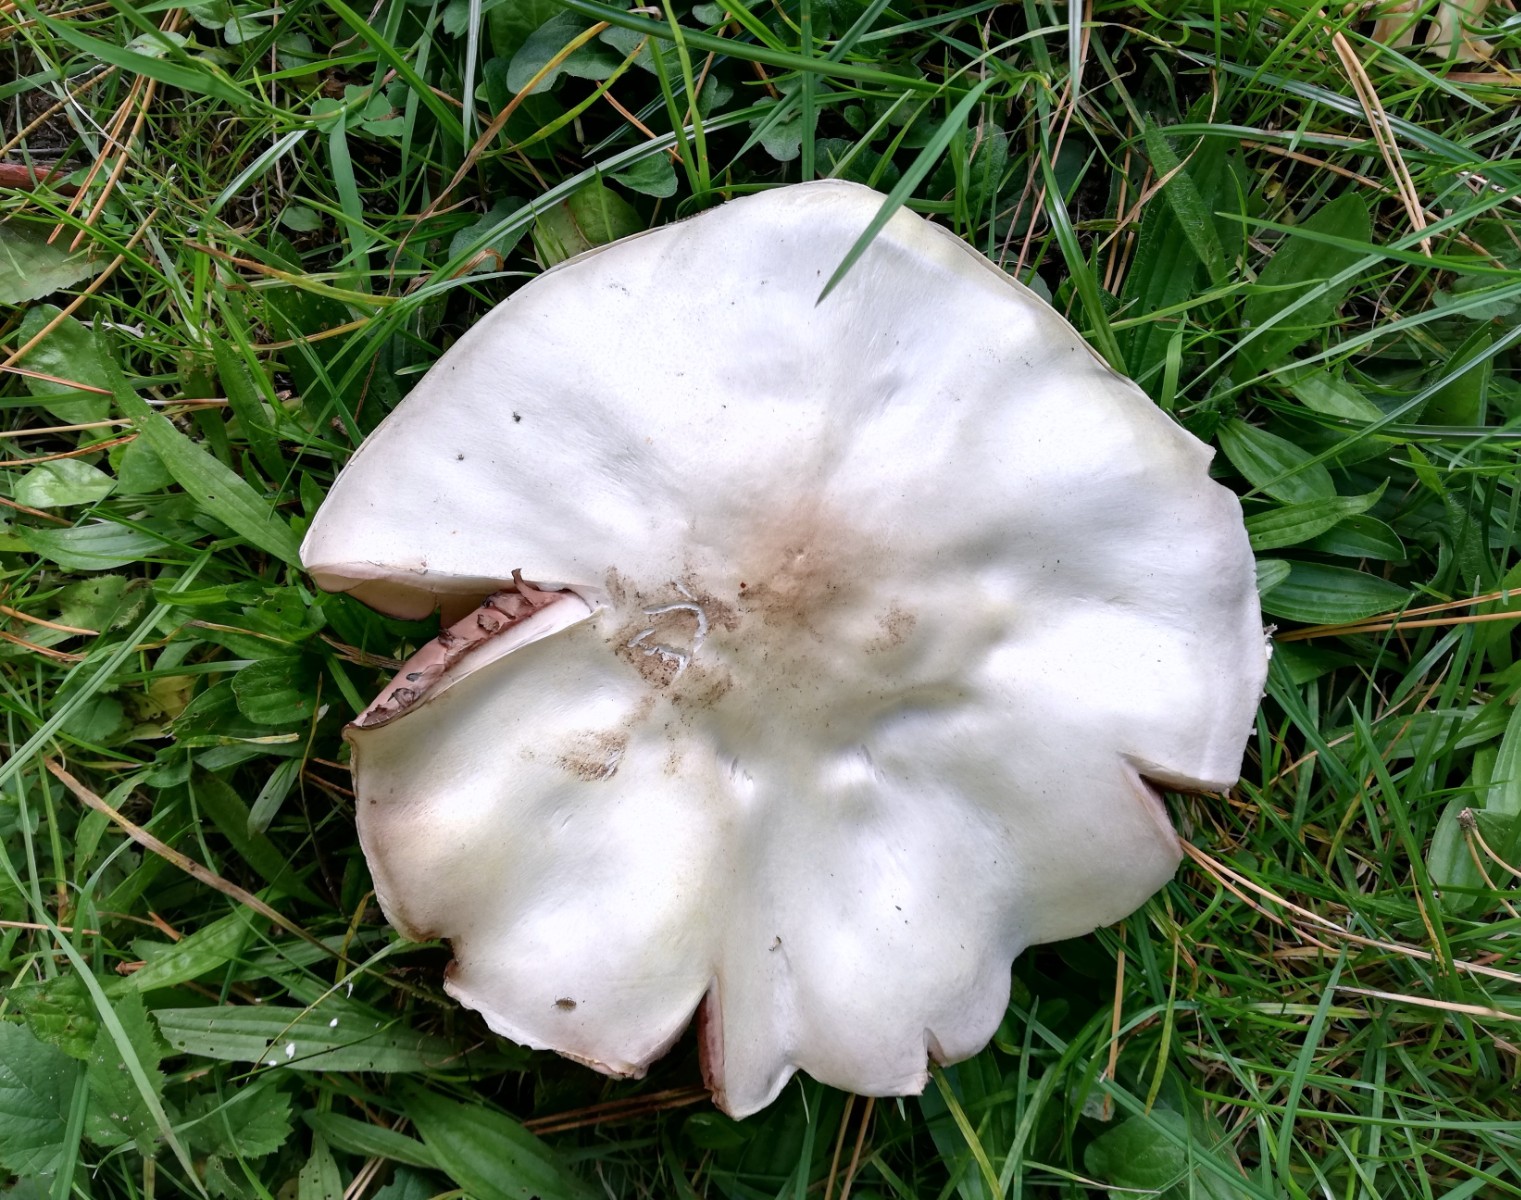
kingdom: Fungi
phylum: Basidiomycota
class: Agaricomycetes
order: Agaricales
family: Agaricaceae
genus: Agaricus
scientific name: Agaricus
